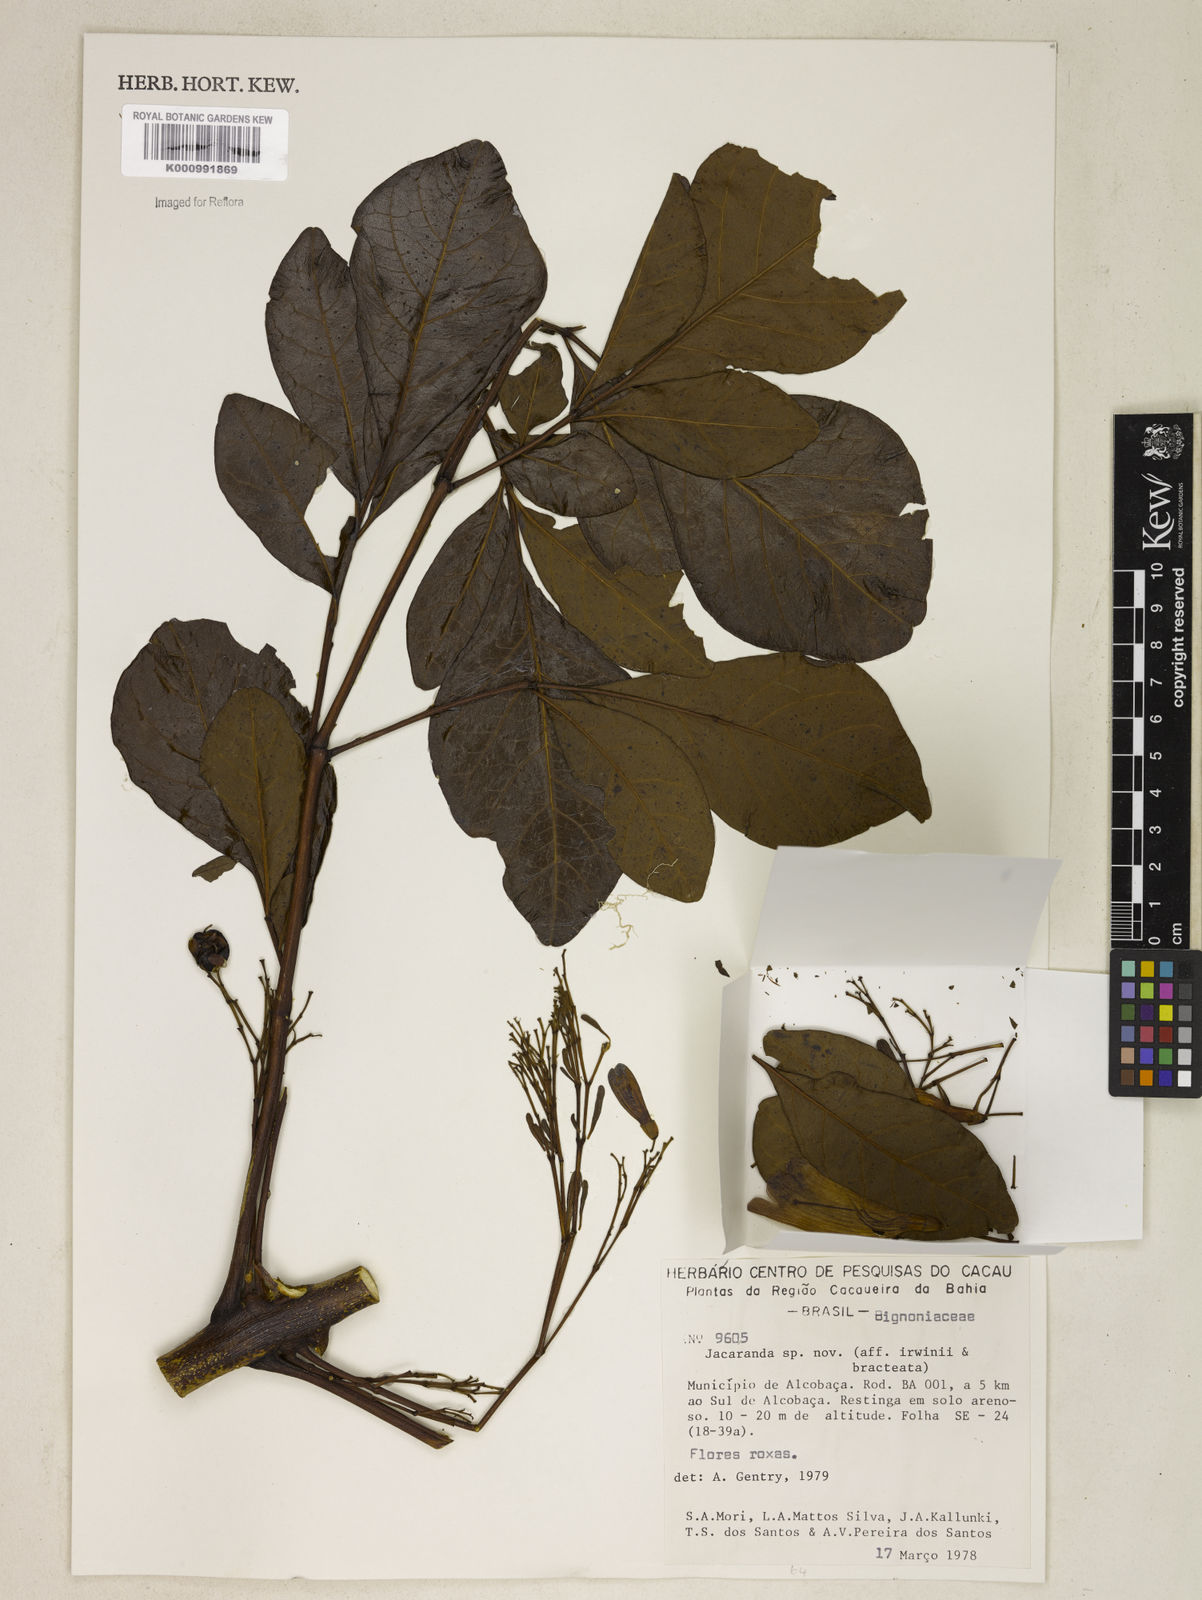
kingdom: Plantae
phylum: Tracheophyta
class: Magnoliopsida
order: Lamiales
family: Bignoniaceae
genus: Jacaranda
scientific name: Jacaranda
